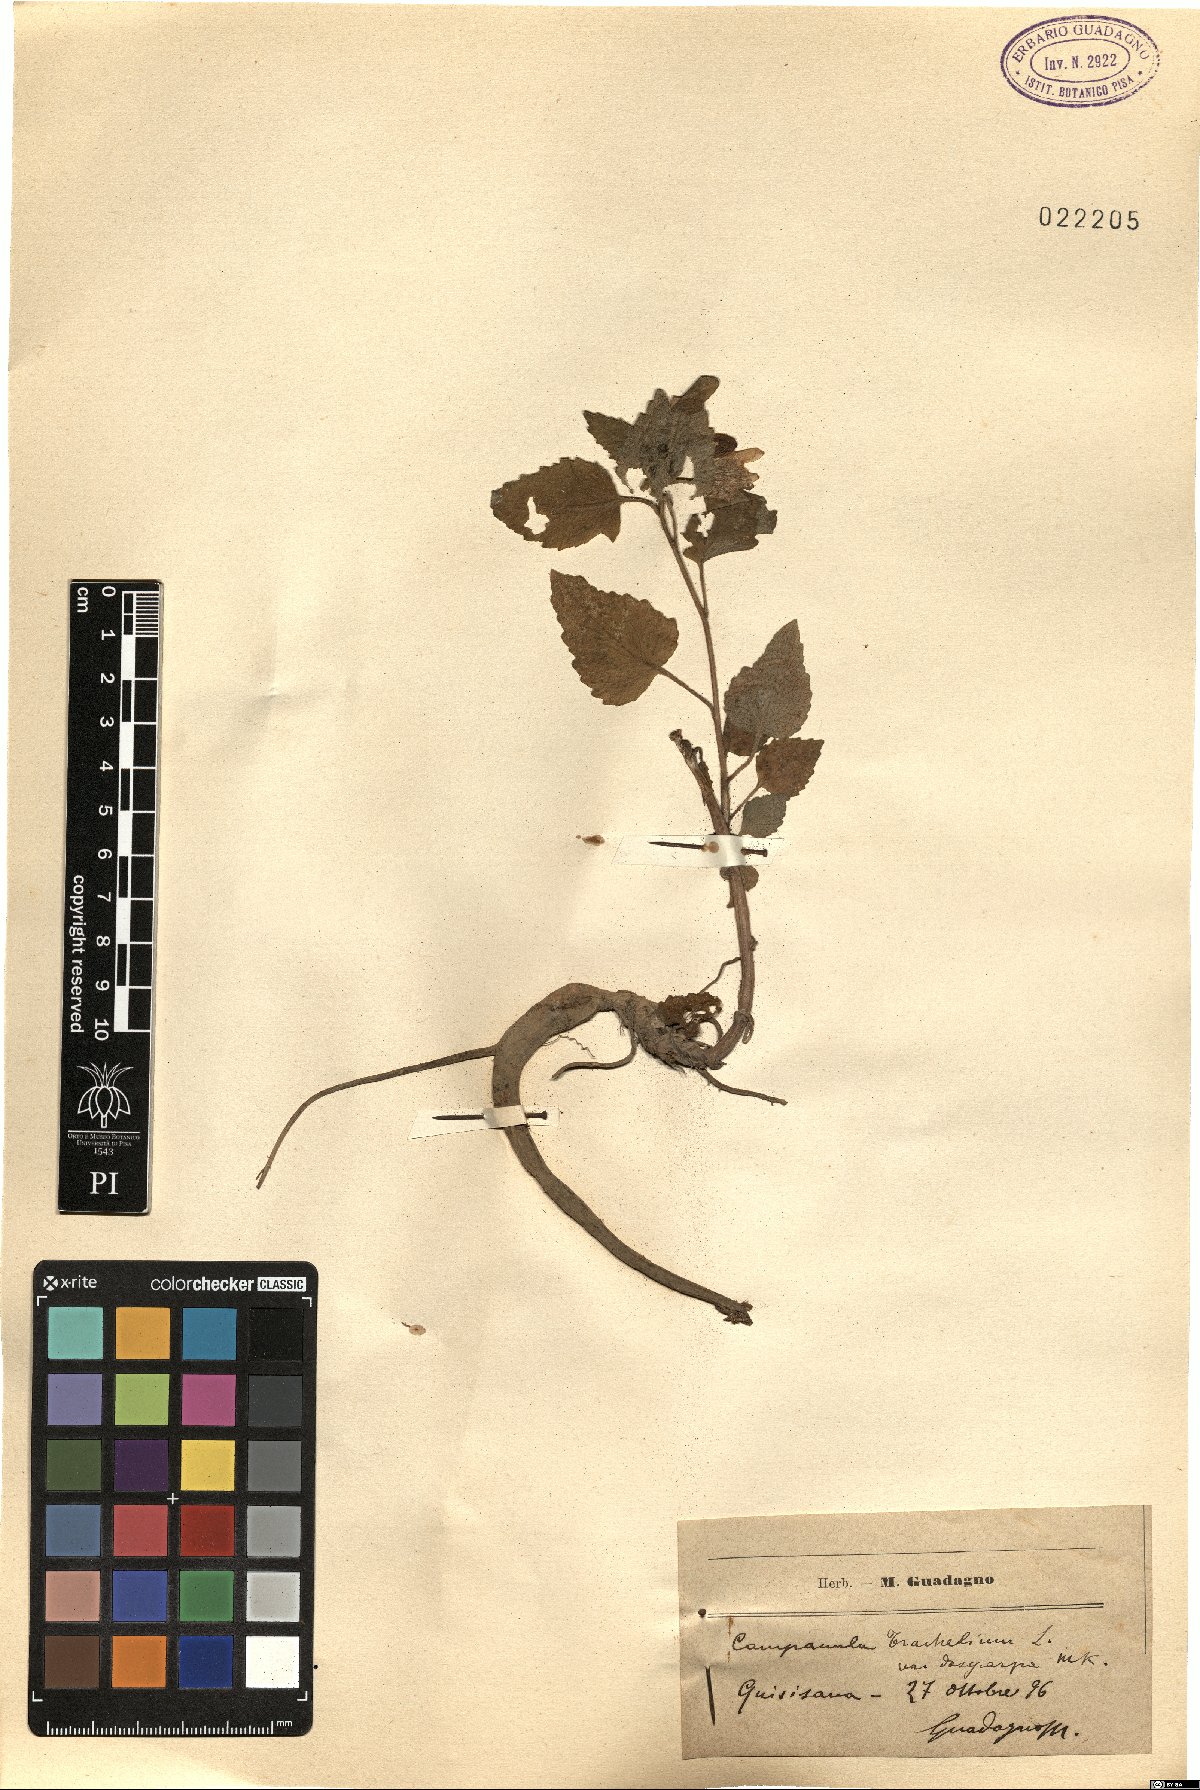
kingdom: Plantae
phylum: Tracheophyta
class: Magnoliopsida
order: Asterales
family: Campanulaceae
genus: Campanula
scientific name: Campanula trachelium
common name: Nettle-leaved bellflower
